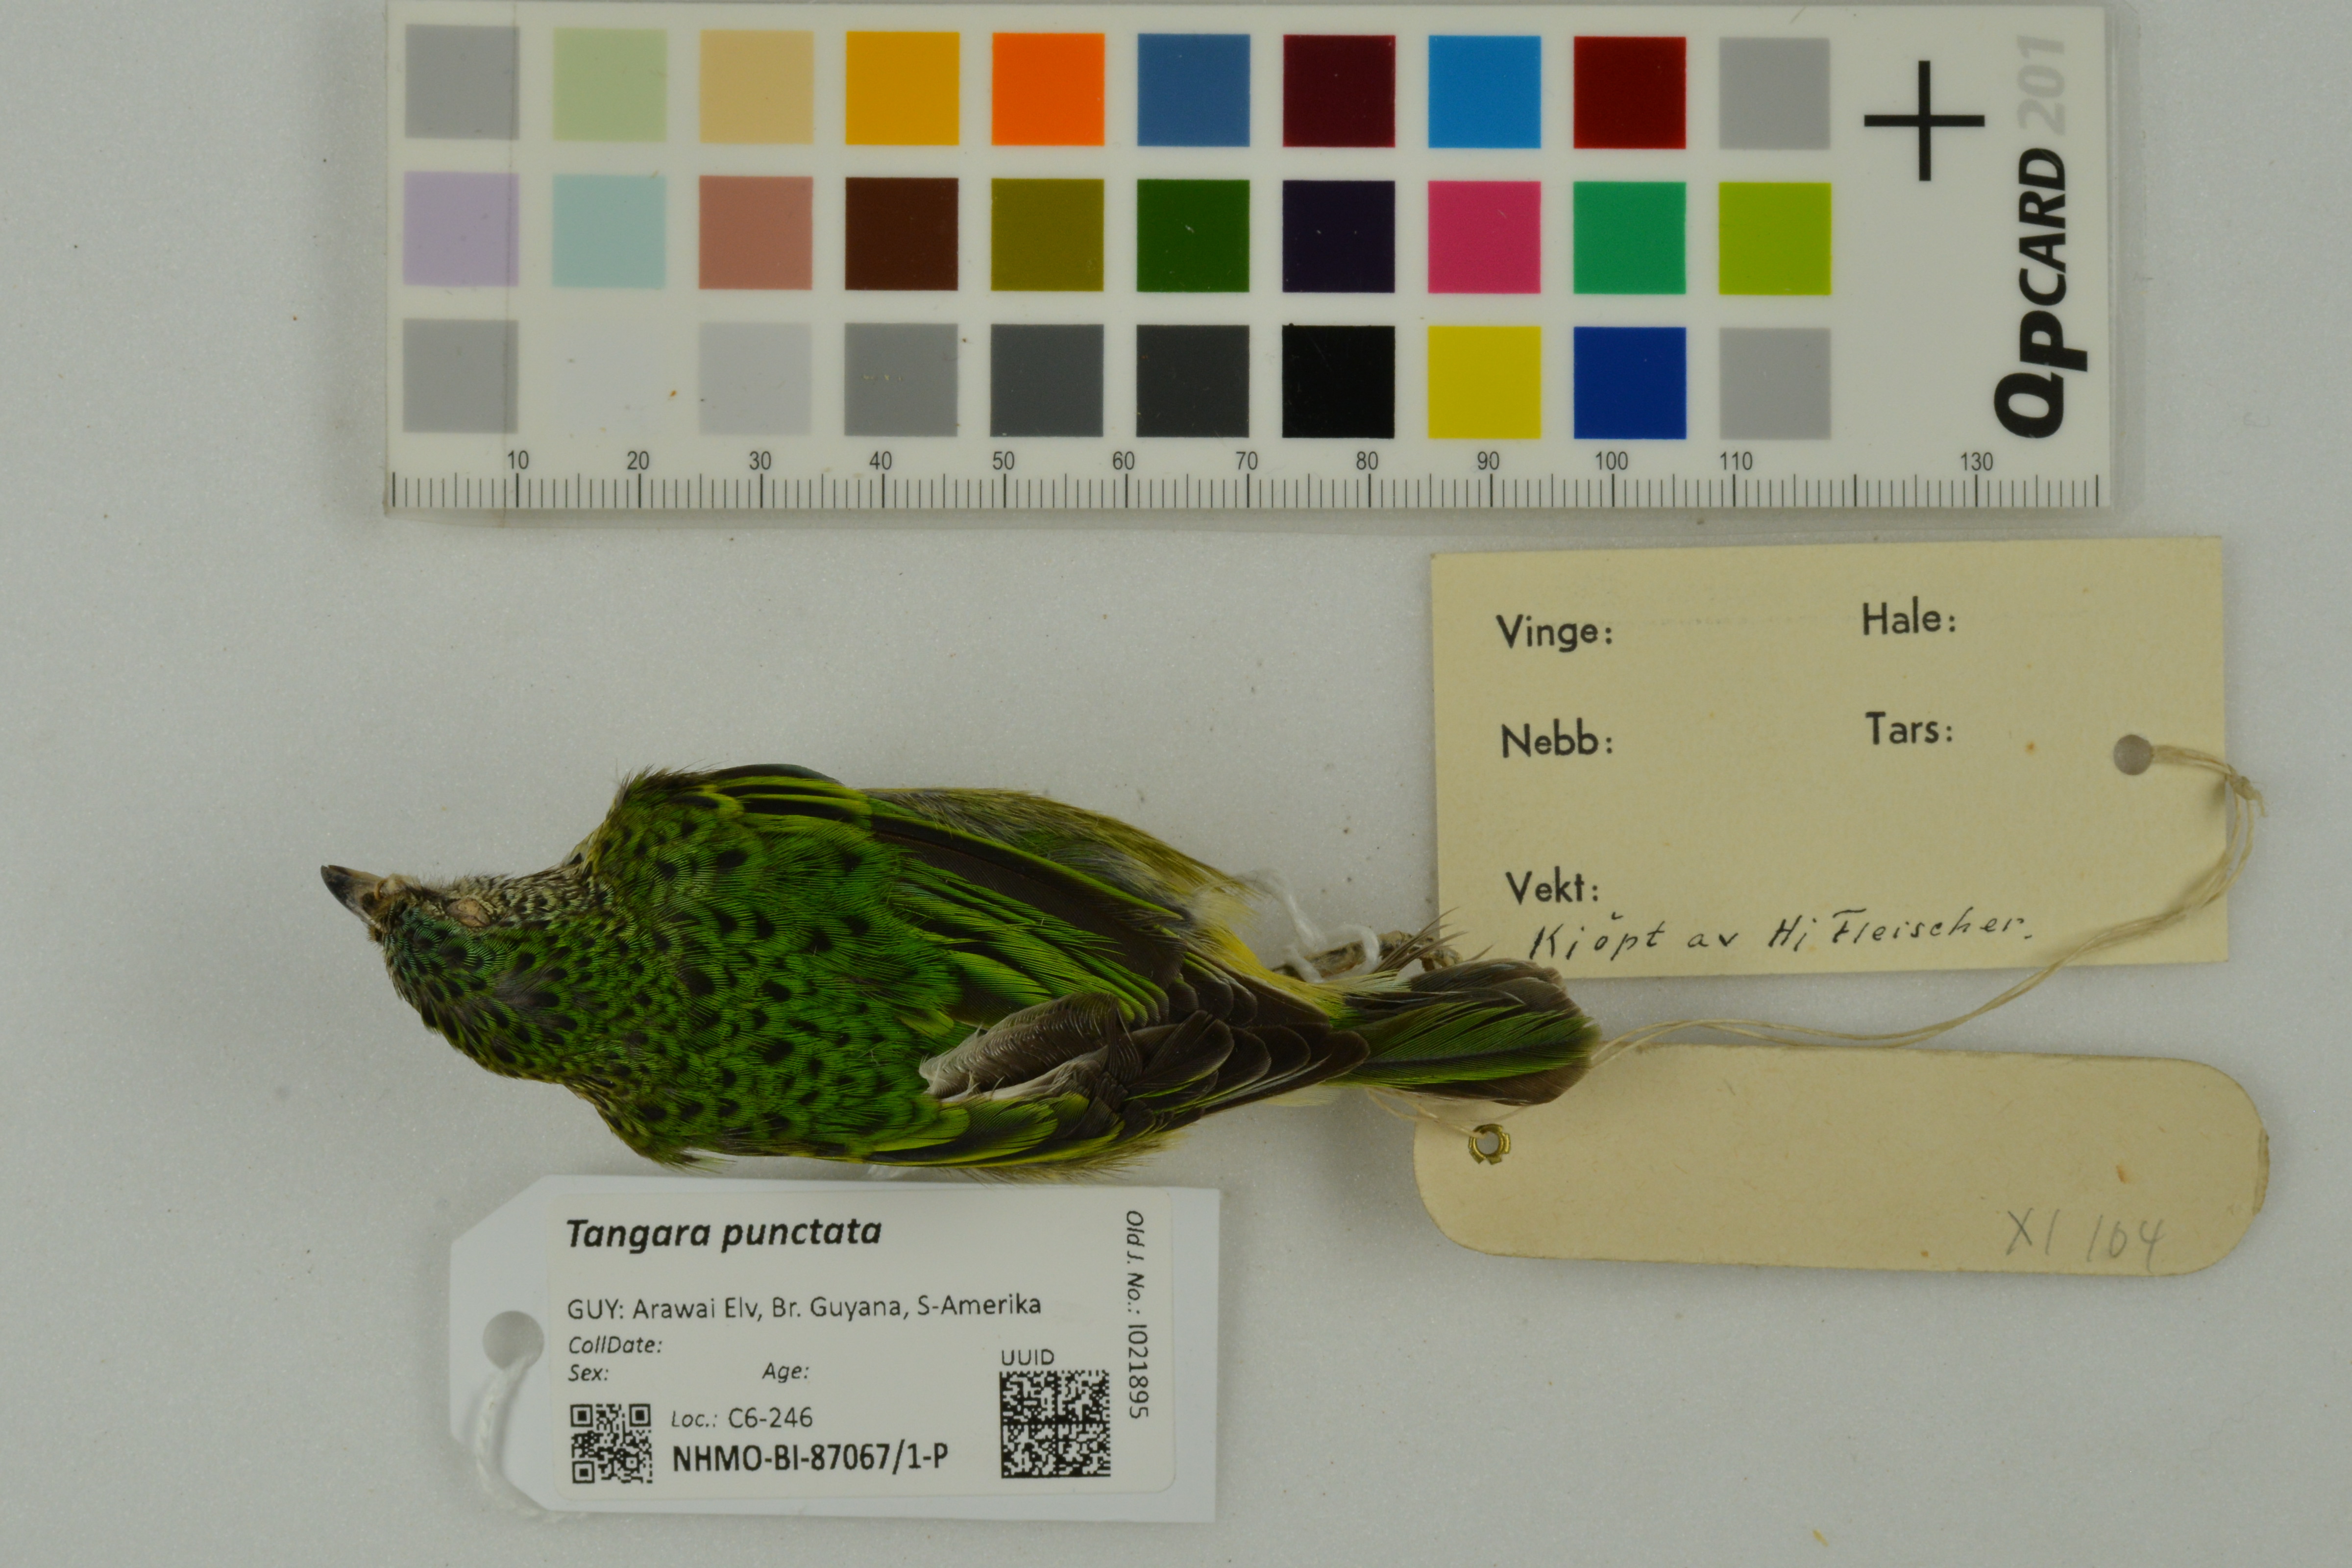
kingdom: Animalia
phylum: Chordata
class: Aves
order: Passeriformes
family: Thraupidae
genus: Ixothraupis
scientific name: Ixothraupis punctata
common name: Spotted tanager
